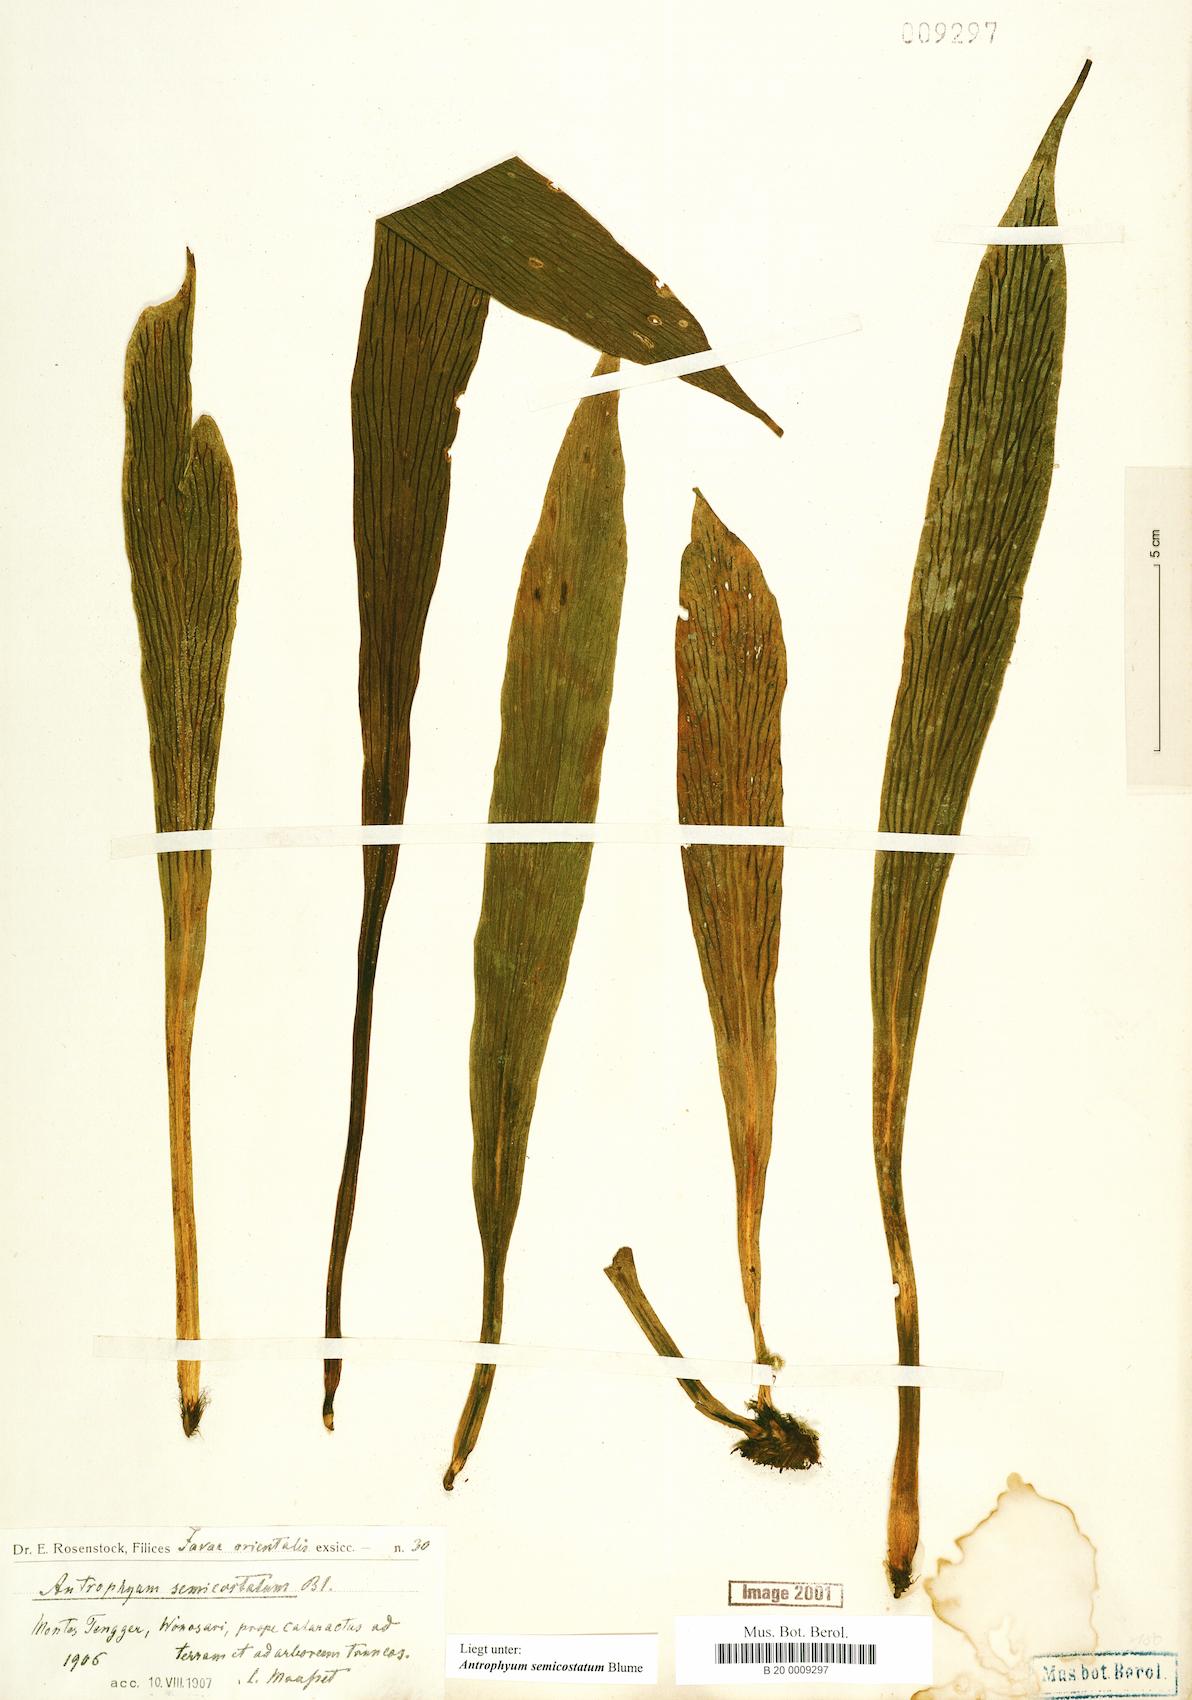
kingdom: Plantae
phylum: Tracheophyta
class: Polypodiopsida
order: Polypodiales
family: Pteridaceae
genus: Antrophyum
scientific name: Antrophyum semicostatum
